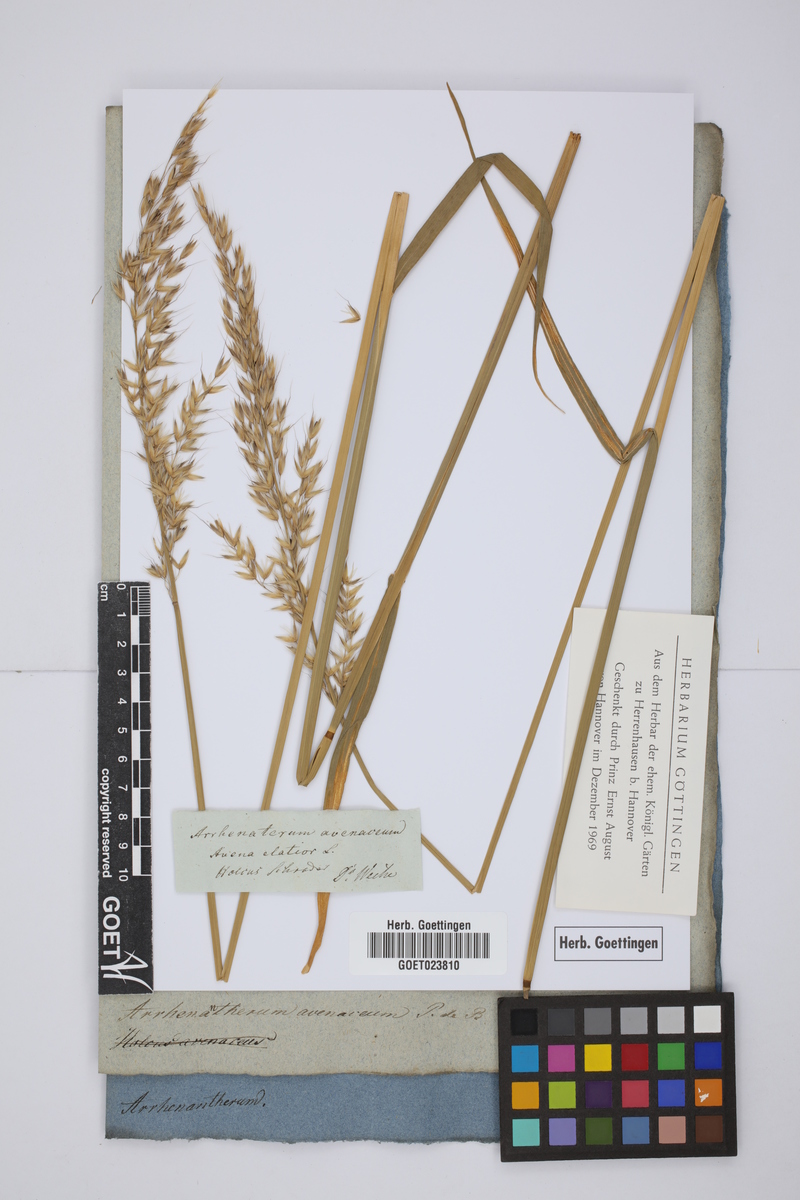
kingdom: Plantae
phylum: Tracheophyta
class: Liliopsida
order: Poales
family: Poaceae
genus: Arrhenatherum
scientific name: Arrhenatherum elatius
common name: Tall oatgrass
